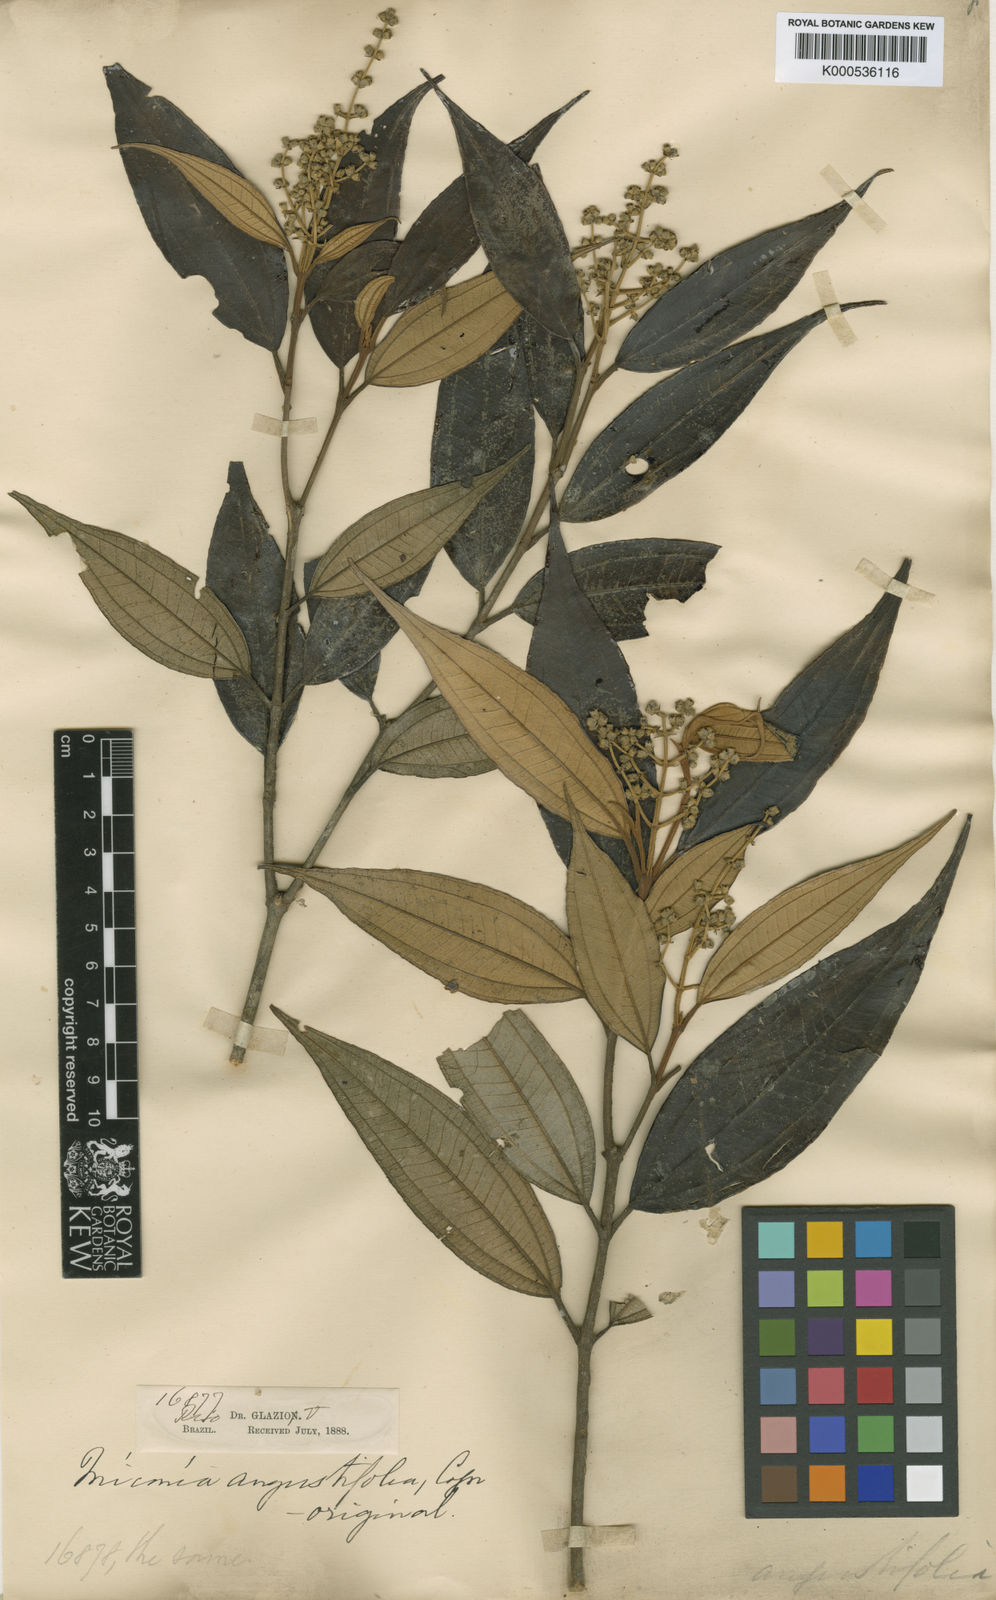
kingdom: Plantae
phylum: Tracheophyta
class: Magnoliopsida
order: Myrtales
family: Melastomataceae
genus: Miconia
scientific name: Miconia baumgratziana
